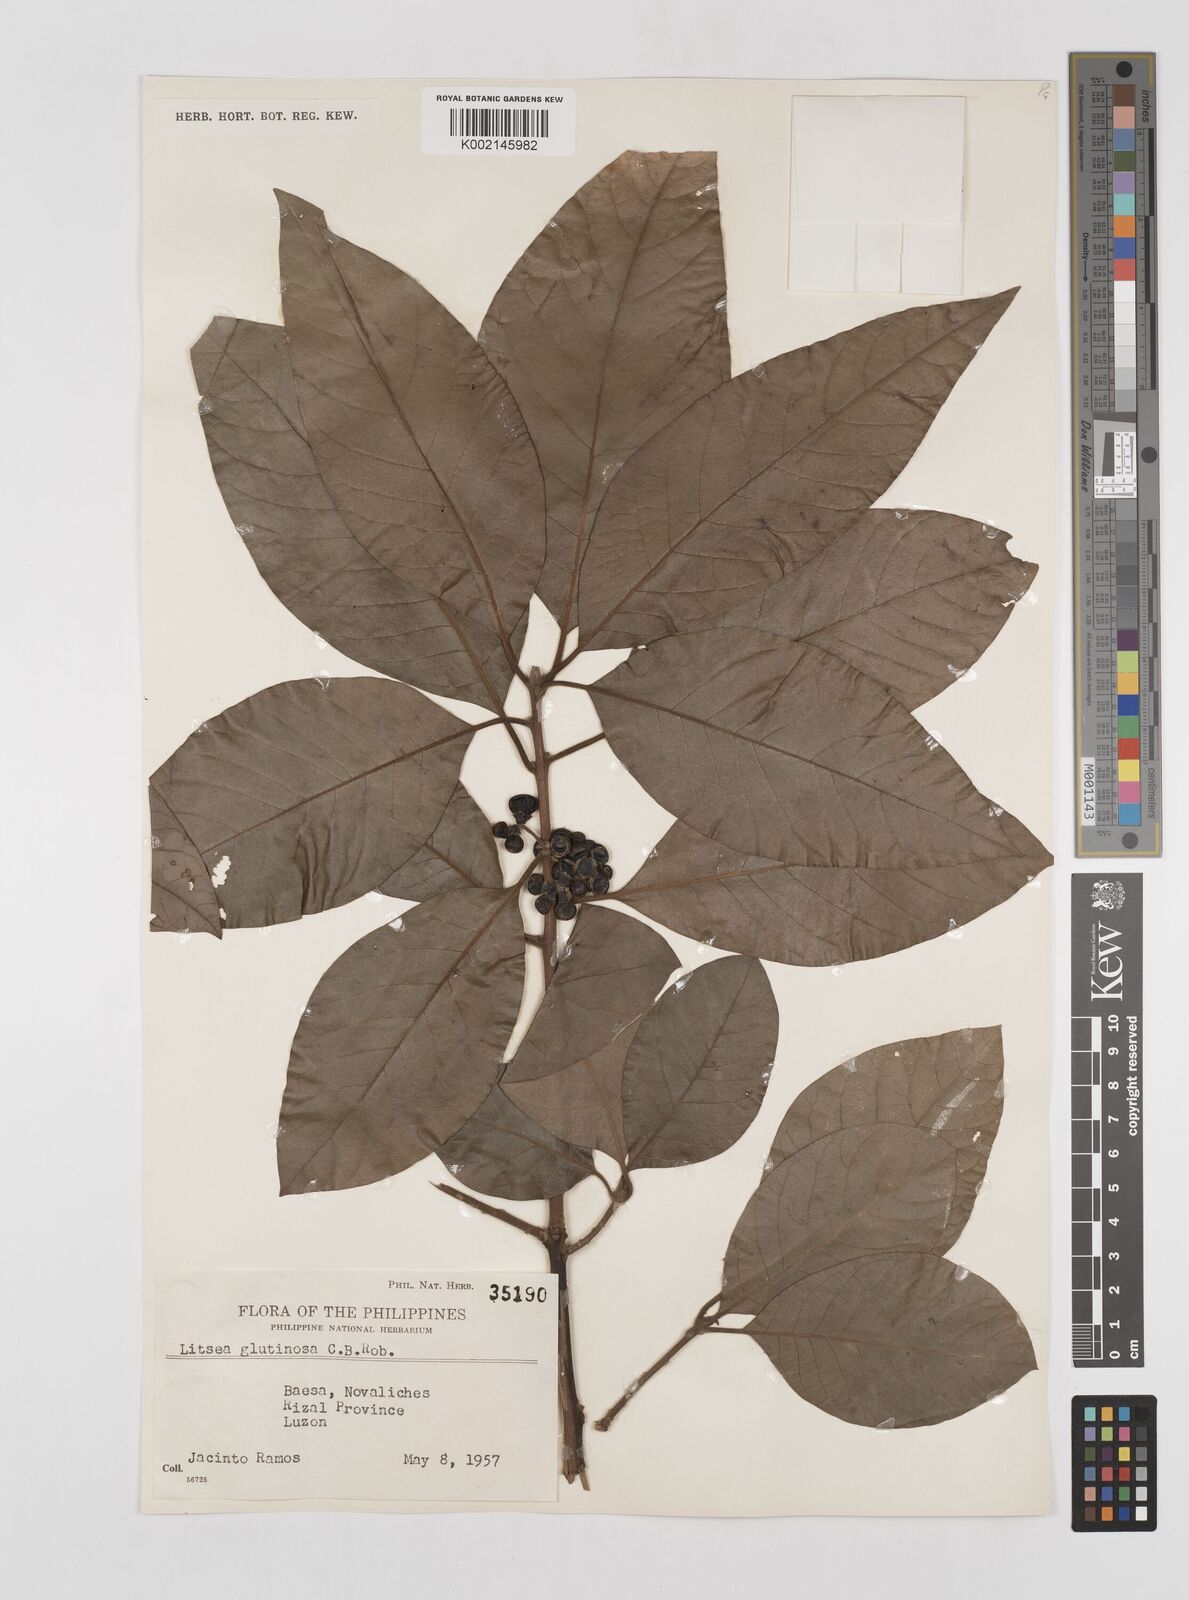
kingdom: Plantae
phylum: Tracheophyta
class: Magnoliopsida
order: Laurales
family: Lauraceae
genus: Litsea
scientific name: Litsea glutinosa
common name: Indian-laurel
